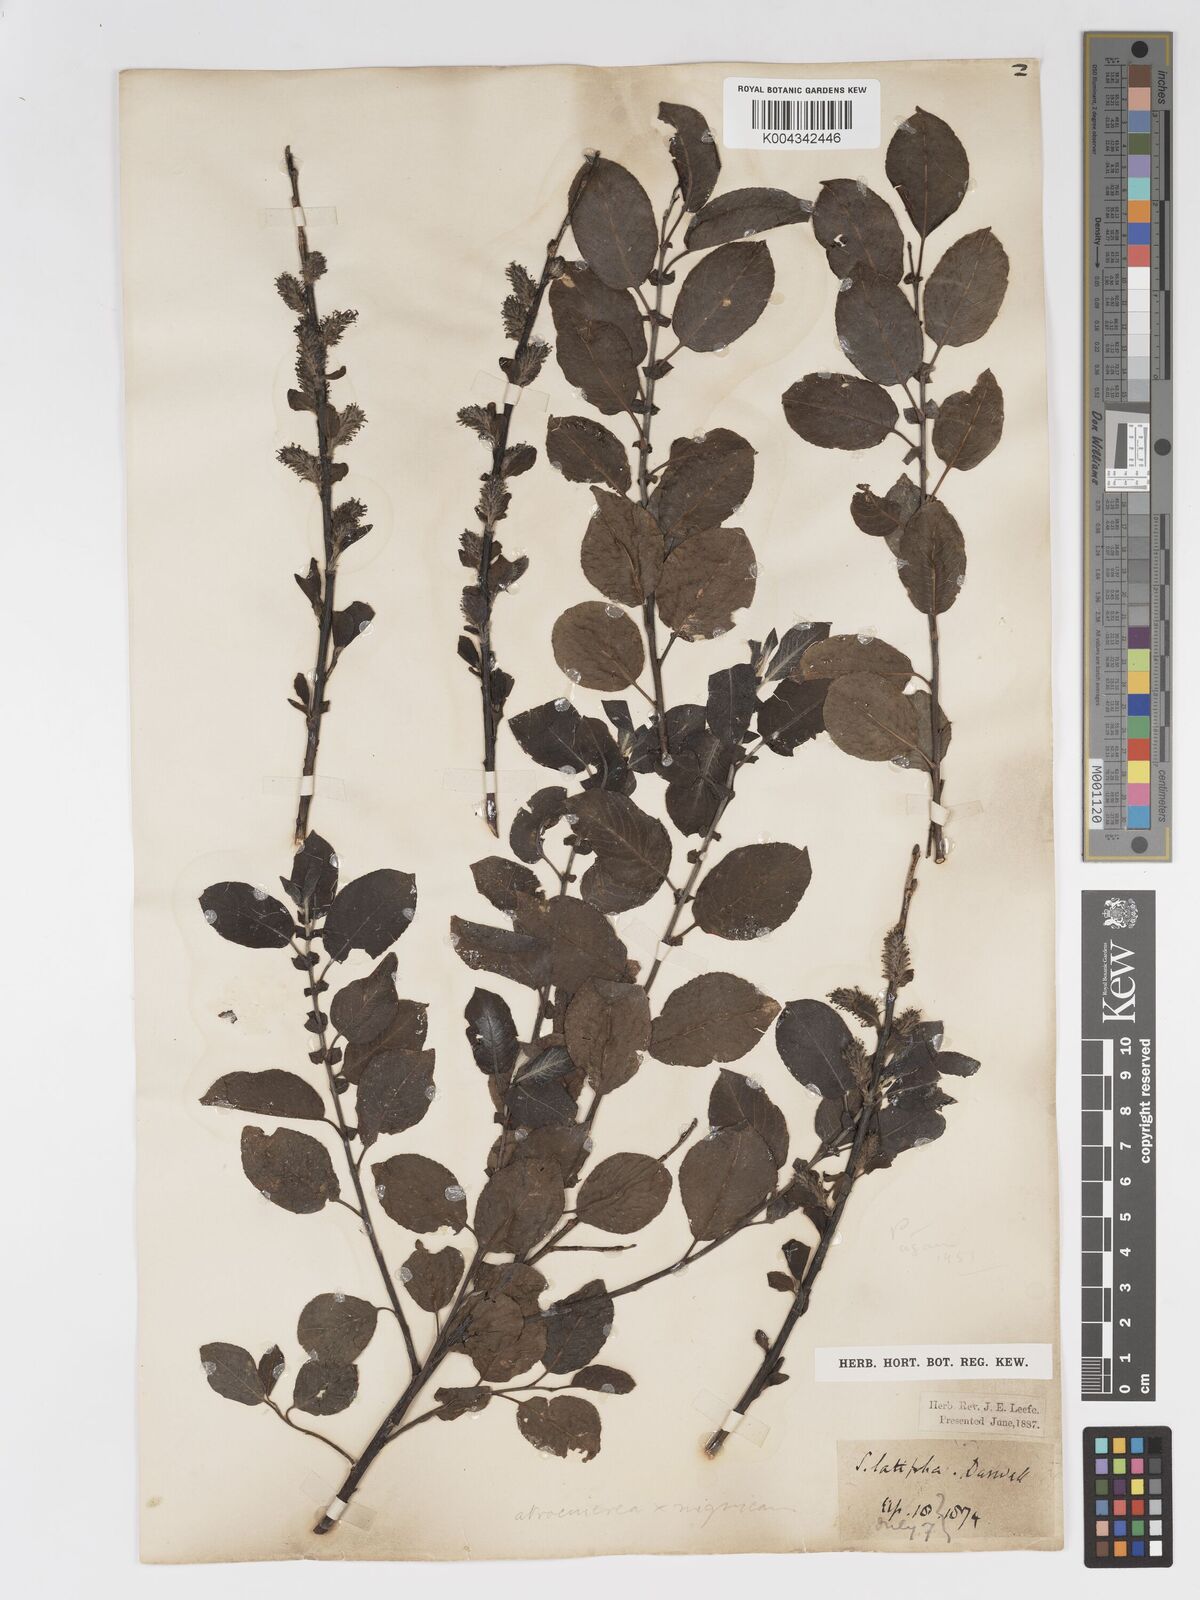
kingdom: Plantae
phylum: Tracheophyta
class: Magnoliopsida
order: Malpighiales
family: Salicaceae
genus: Salix
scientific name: Salix atrocinerea
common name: Rusty willow
